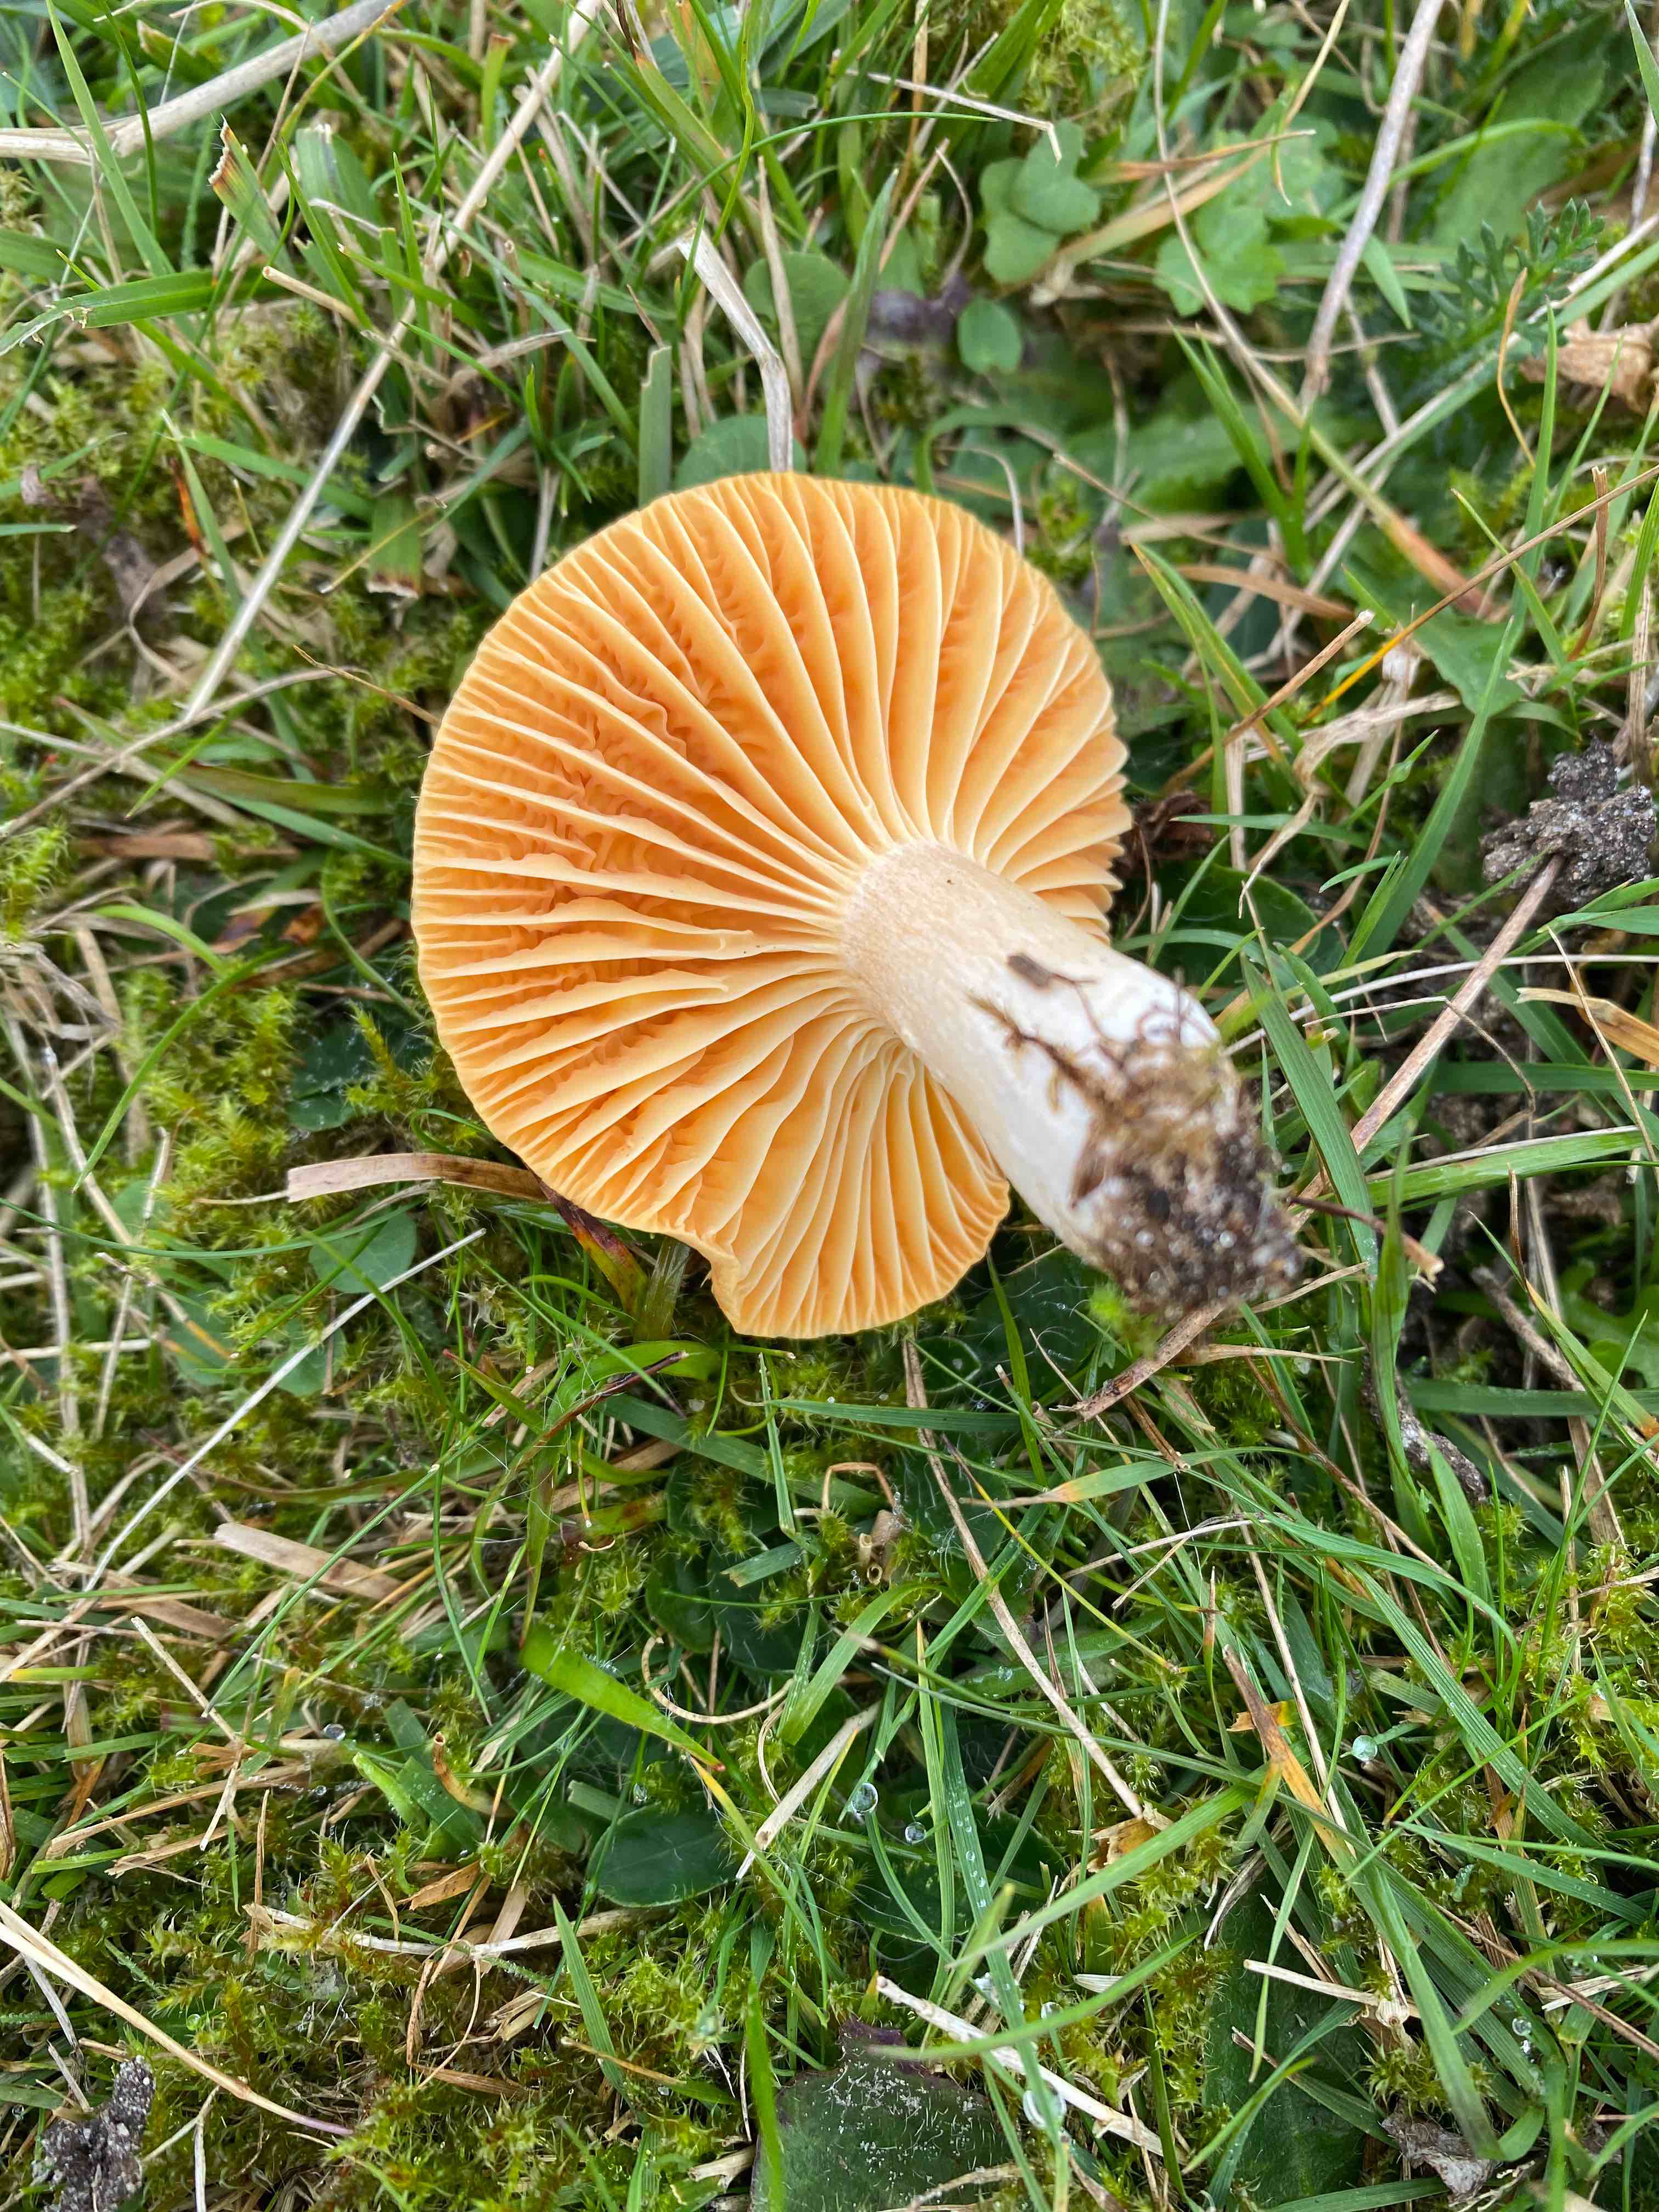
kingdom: Fungi
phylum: Basidiomycota
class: Agaricomycetes
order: Agaricales
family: Hygrophoraceae
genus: Cuphophyllus
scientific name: Cuphophyllus pratensis
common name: eng-vokshat
